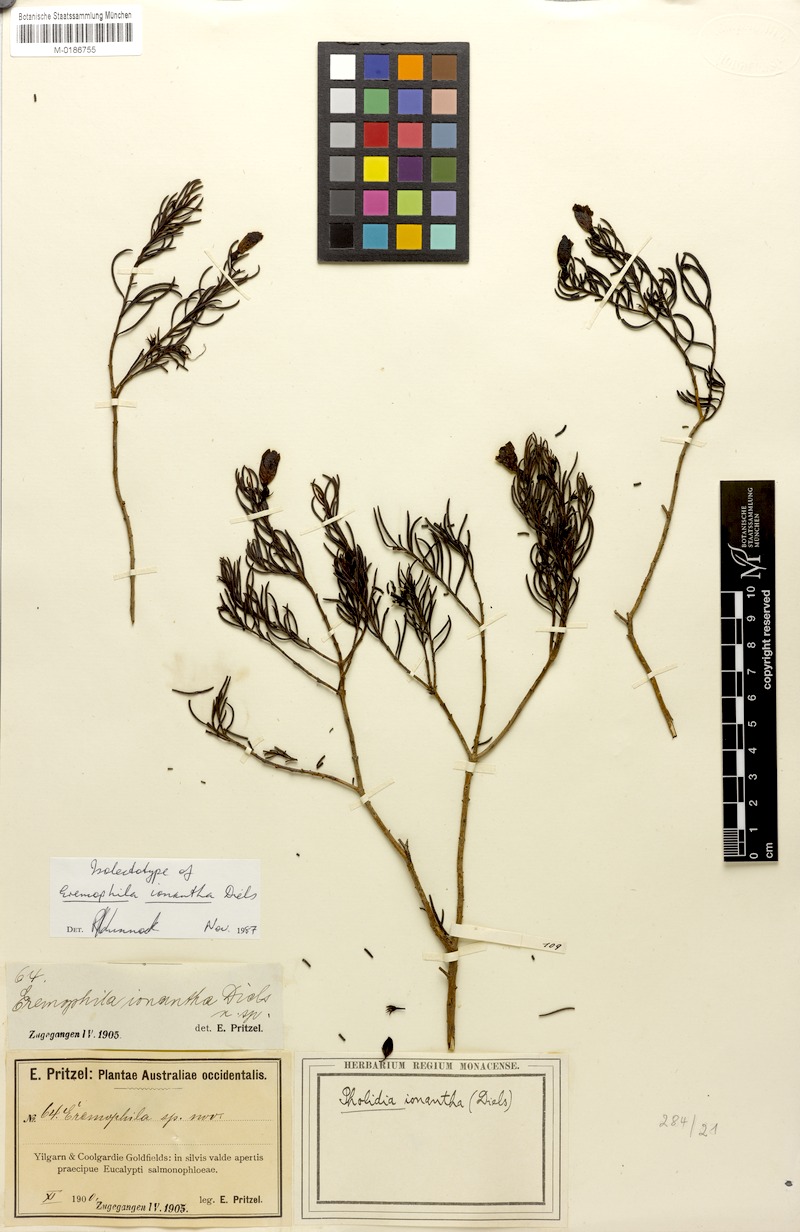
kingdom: Plantae
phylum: Tracheophyta
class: Magnoliopsida
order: Lamiales
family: Scrophulariaceae
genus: Eremophila
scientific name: Eremophila ionantha
